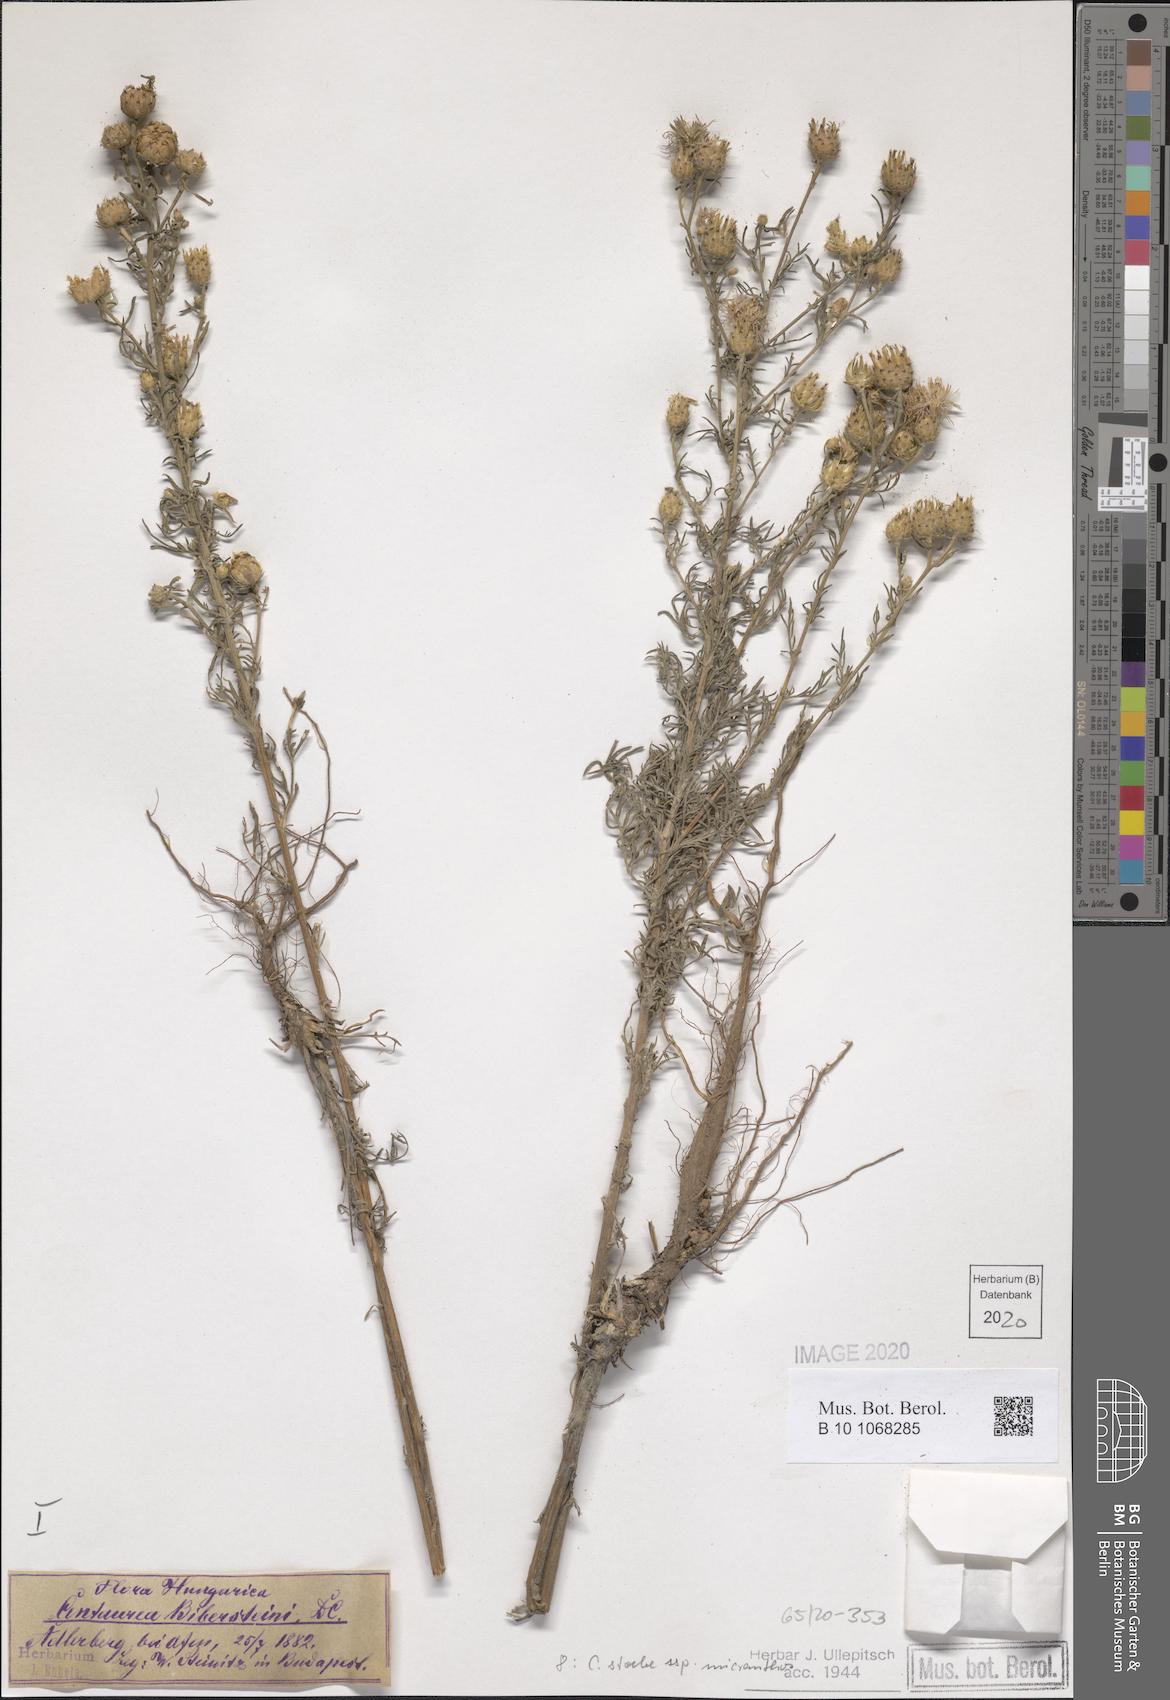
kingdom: Plantae
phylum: Tracheophyta
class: Magnoliopsida
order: Asterales
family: Asteraceae
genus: Centaurea
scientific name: Centaurea australis
